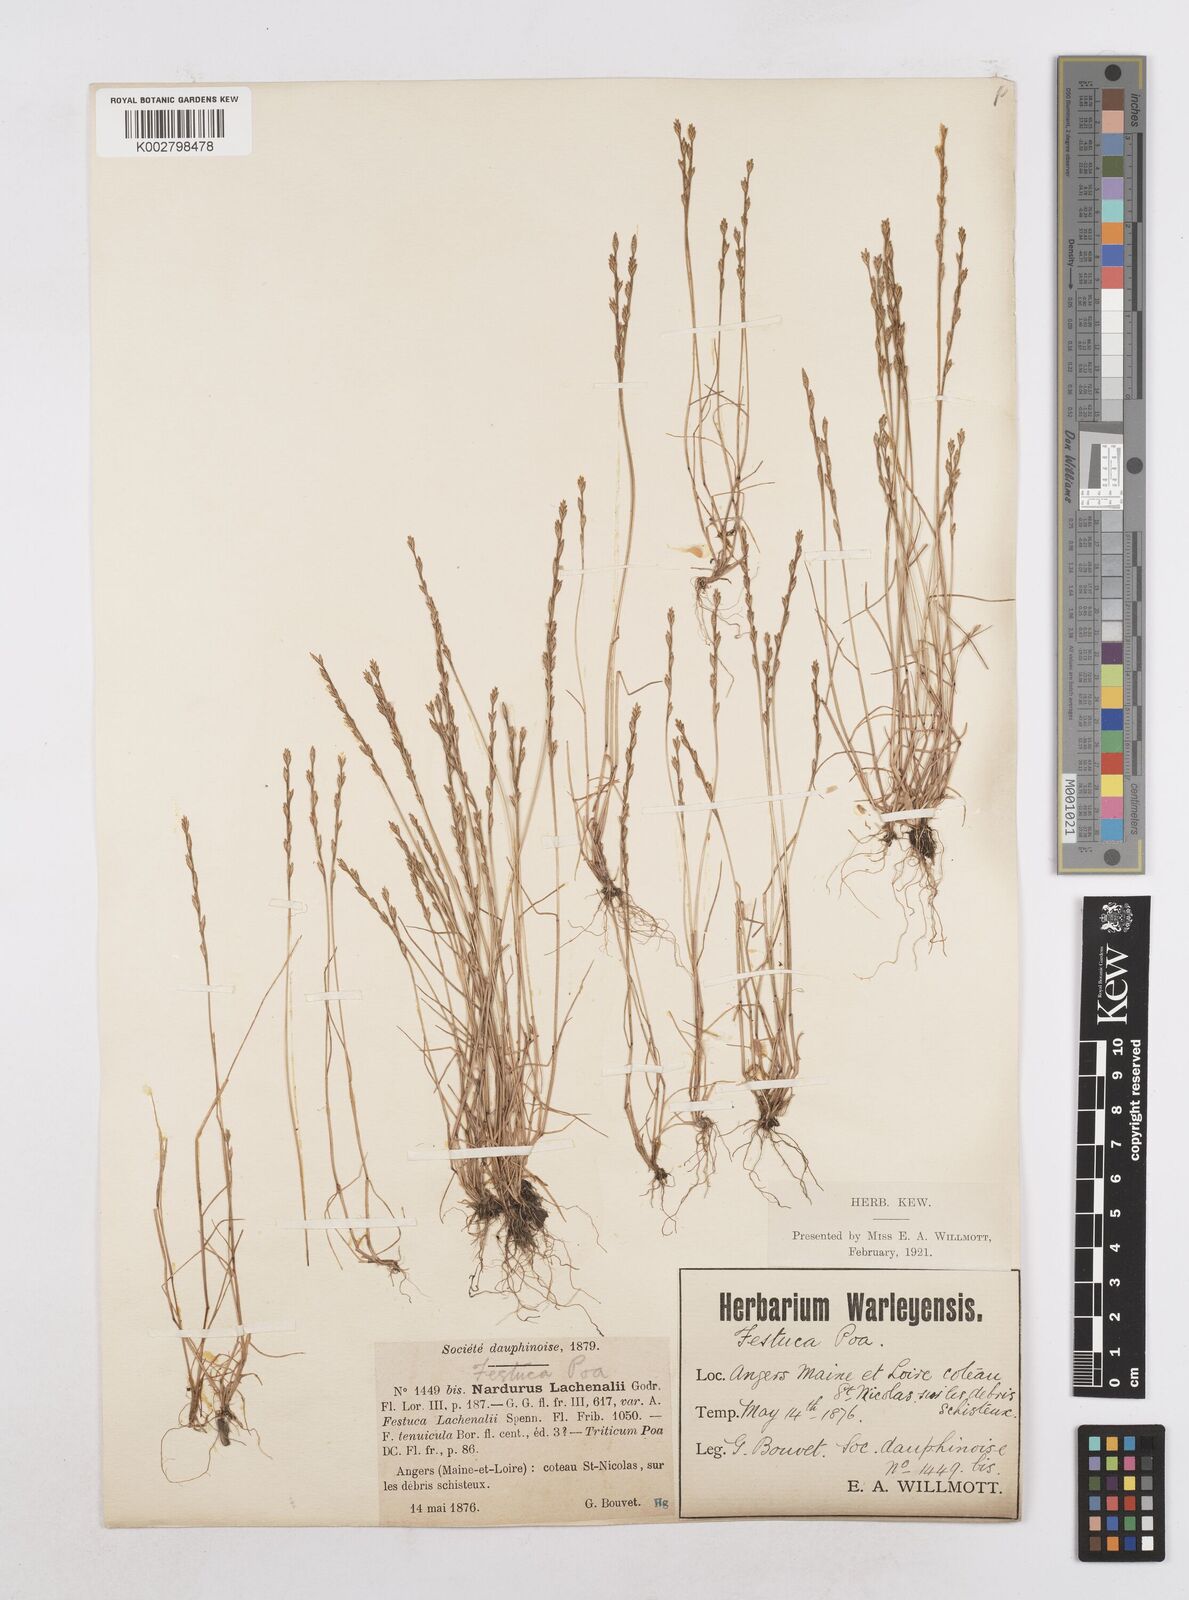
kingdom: Plantae
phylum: Tracheophyta
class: Liliopsida
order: Poales
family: Poaceae
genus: Festuca
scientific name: Festuca lachenalii
